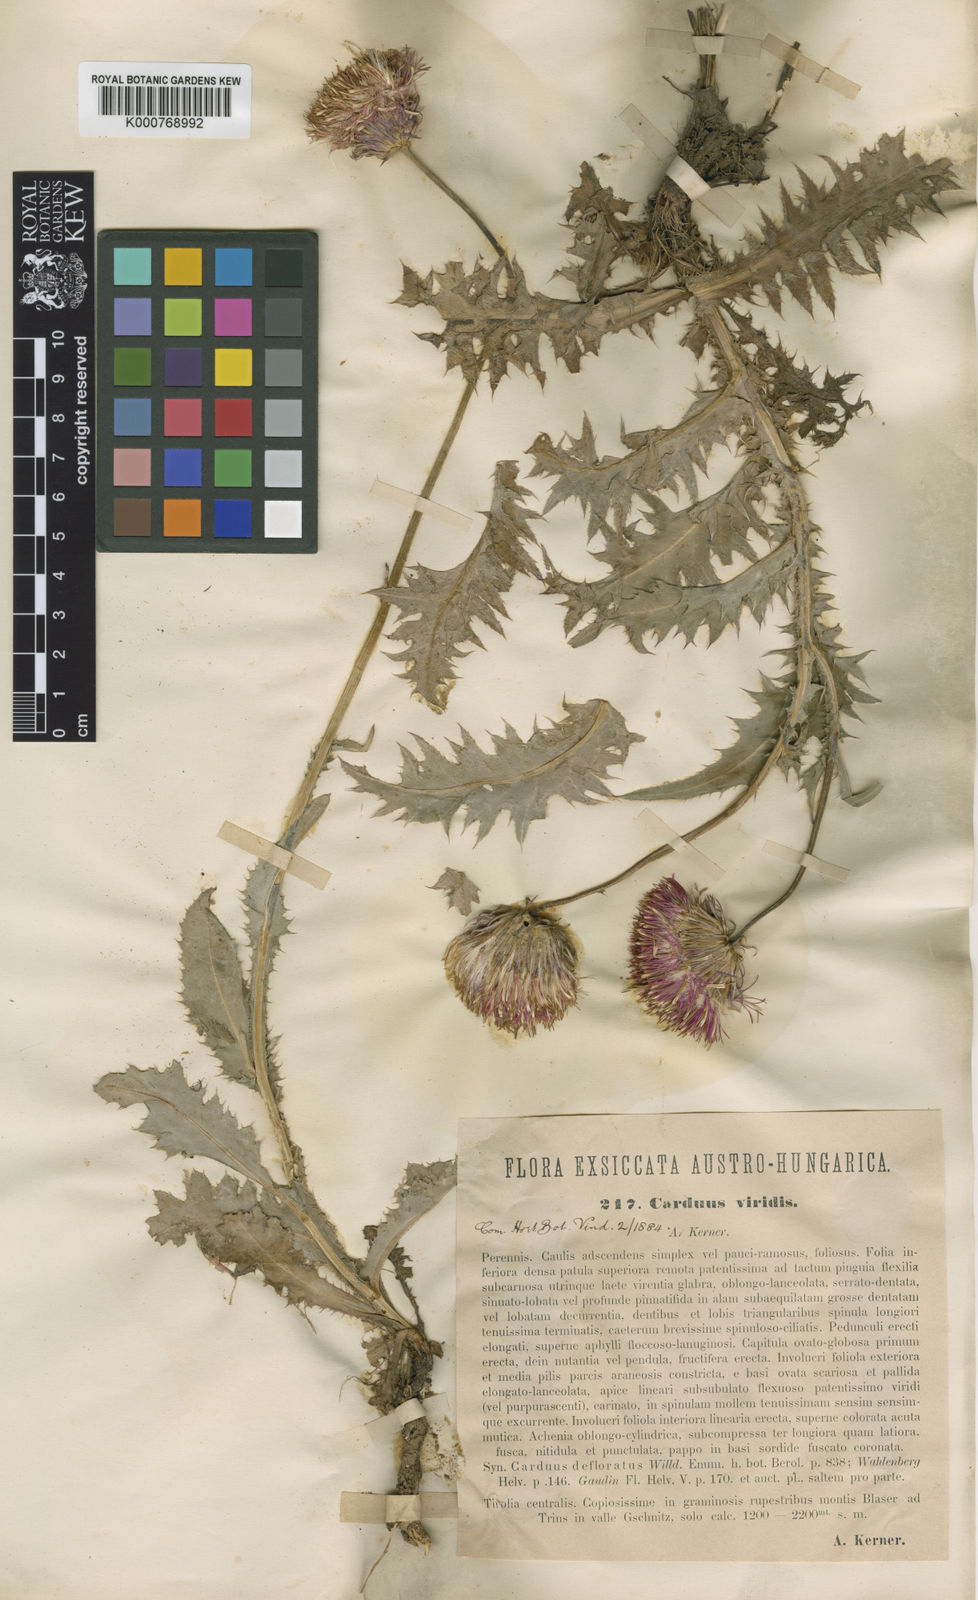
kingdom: Plantae
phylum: Tracheophyta
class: Magnoliopsida
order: Asterales
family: Asteraceae
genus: Carduus
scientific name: Carduus defloratus
